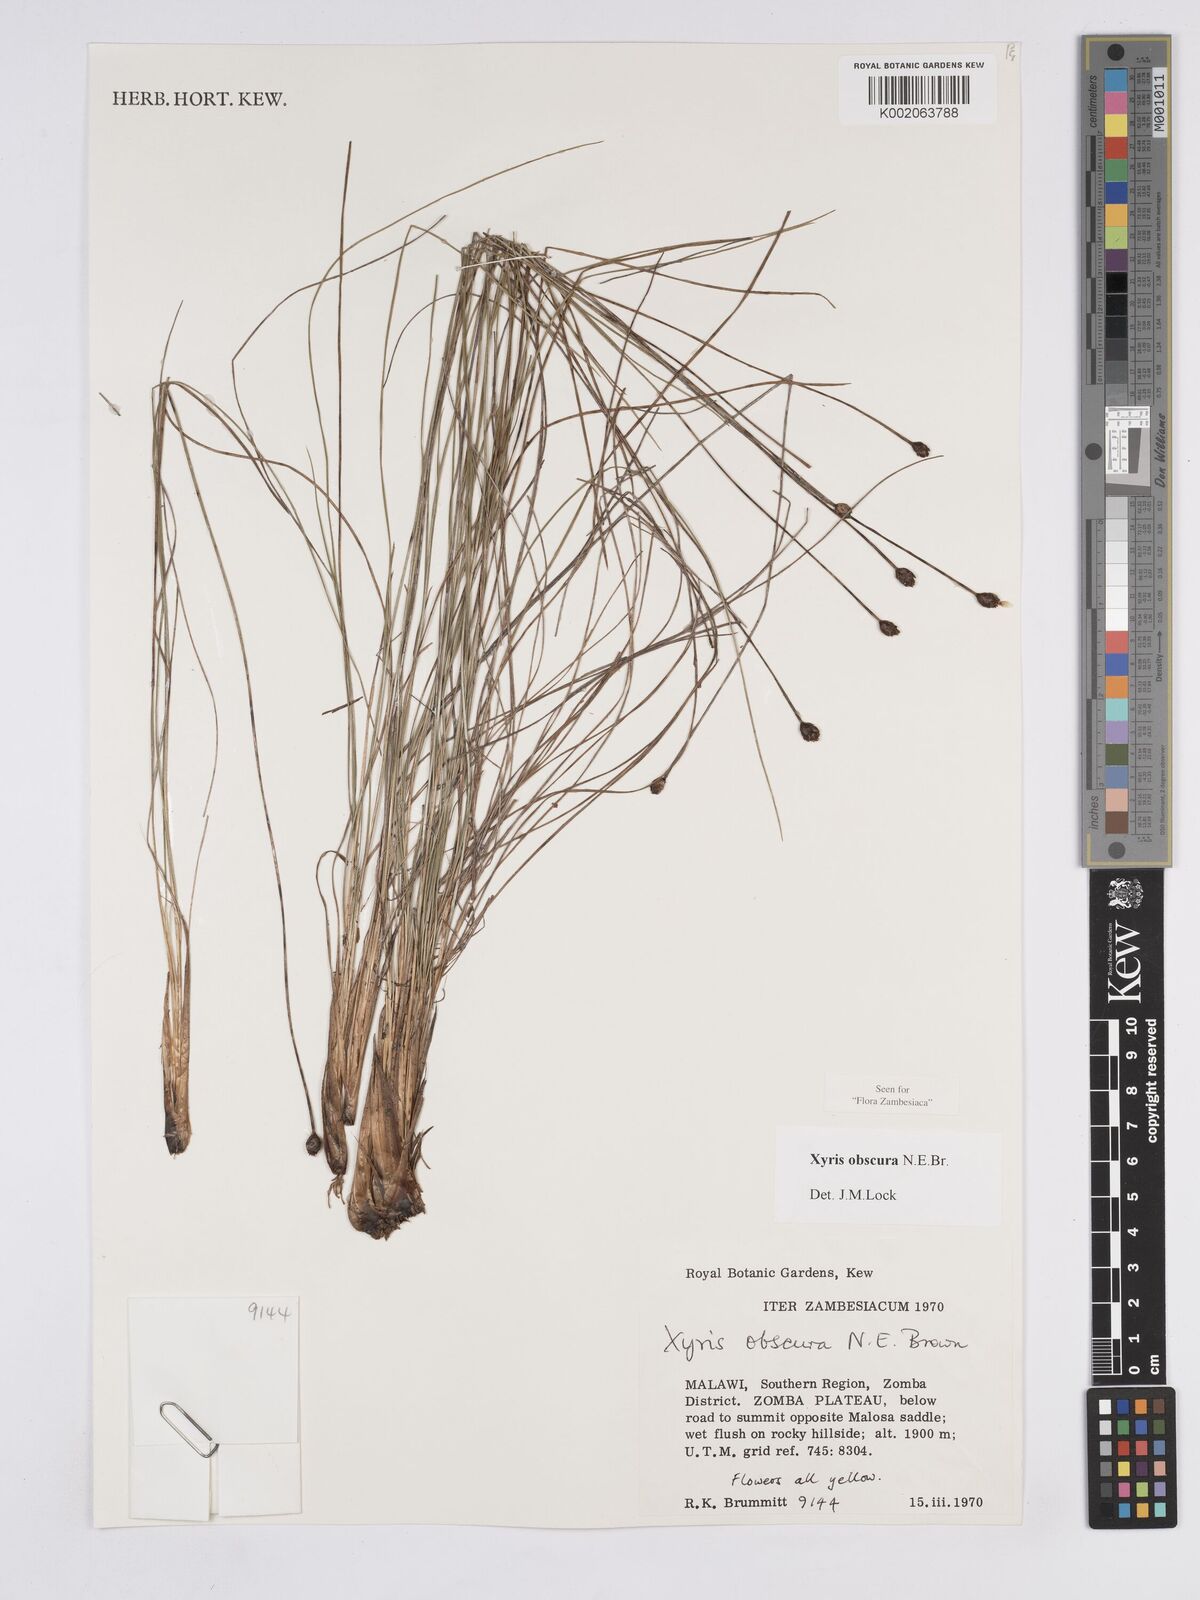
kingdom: Plantae
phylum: Tracheophyta
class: Liliopsida
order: Poales
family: Xyridaceae
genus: Xyris
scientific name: Xyris obscura
